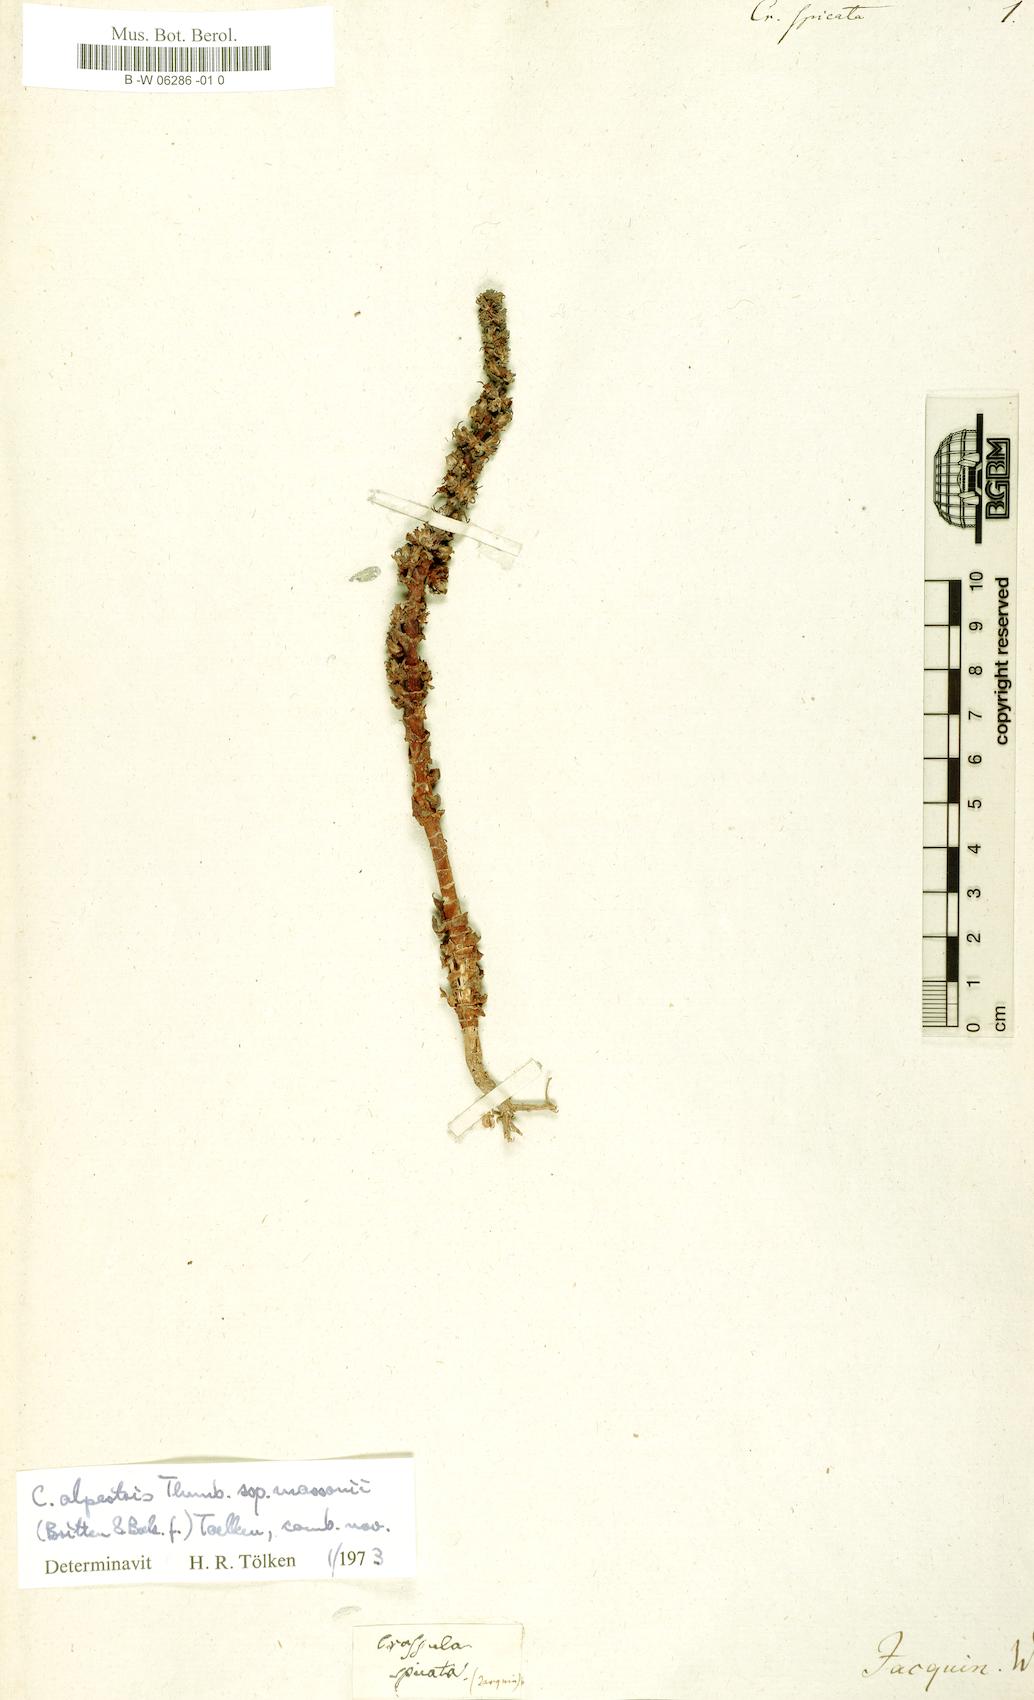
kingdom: Plantae
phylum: Tracheophyta
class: Magnoliopsida
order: Saxifragales
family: Crassulaceae
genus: Crassula
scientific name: Crassula capitella
